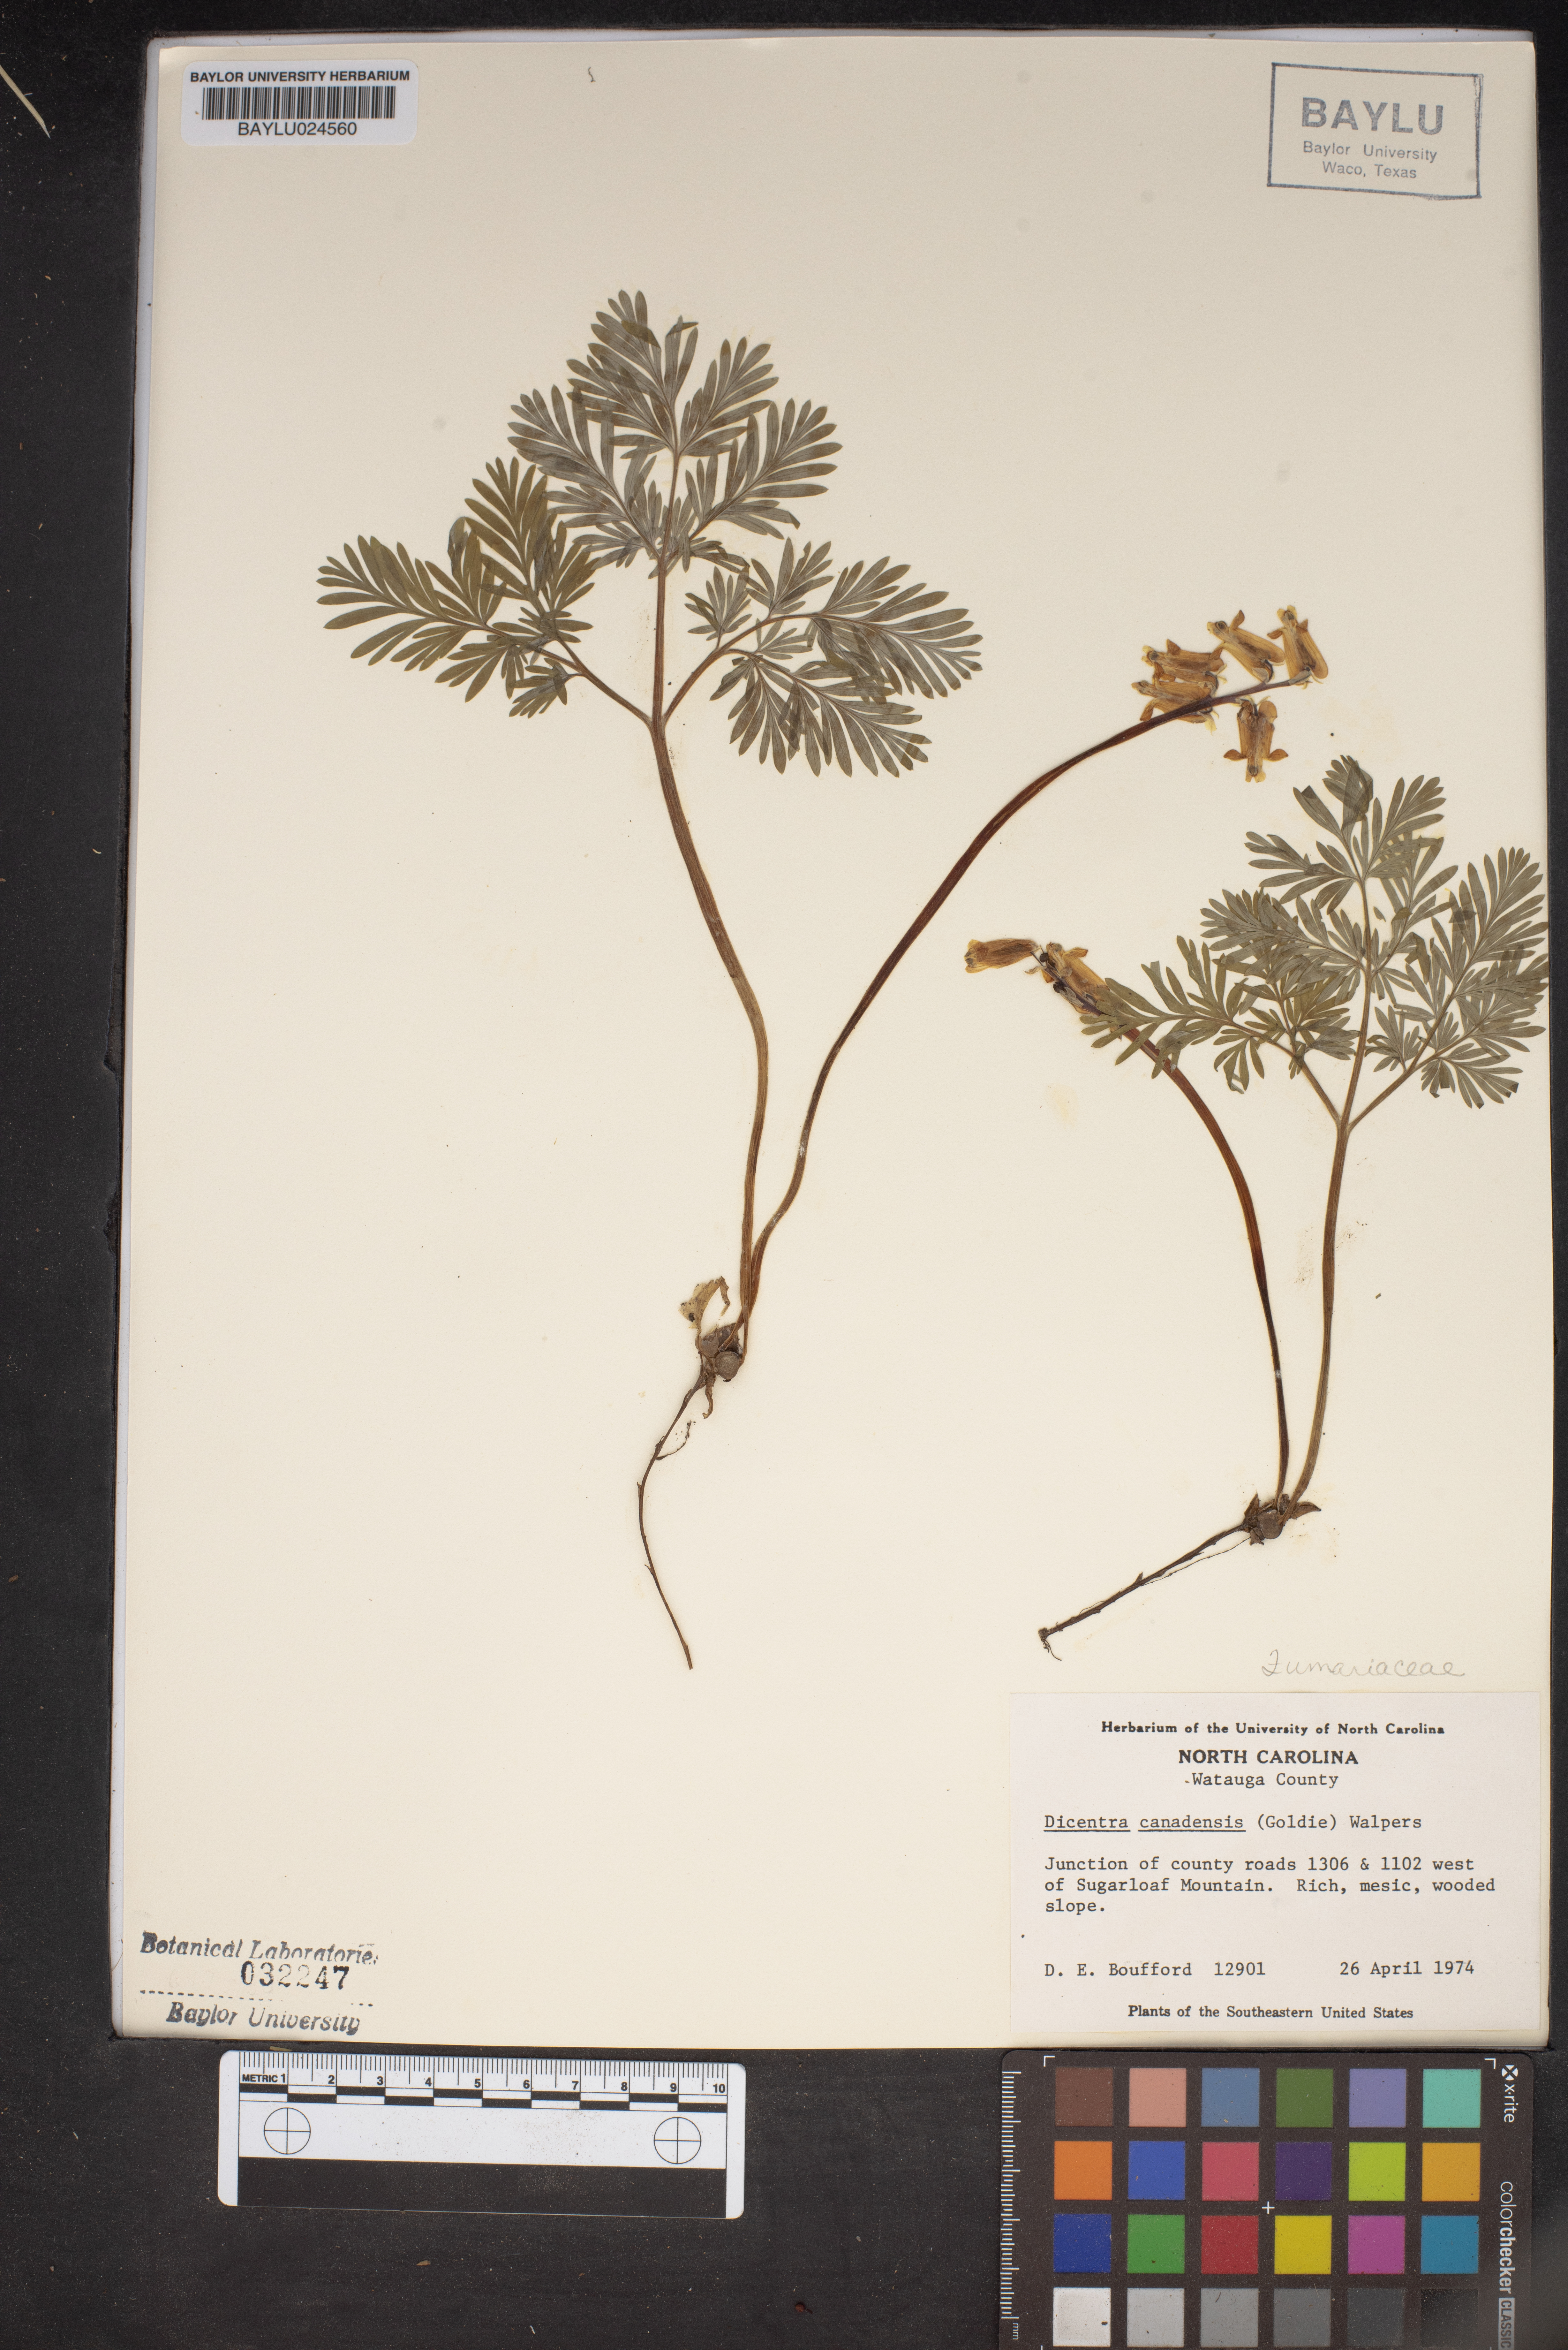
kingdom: Plantae
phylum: Tracheophyta
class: Magnoliopsida
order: Ranunculales
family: Papaveraceae
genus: Dicentra
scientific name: Dicentra canadensis
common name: Squirrel-corn
